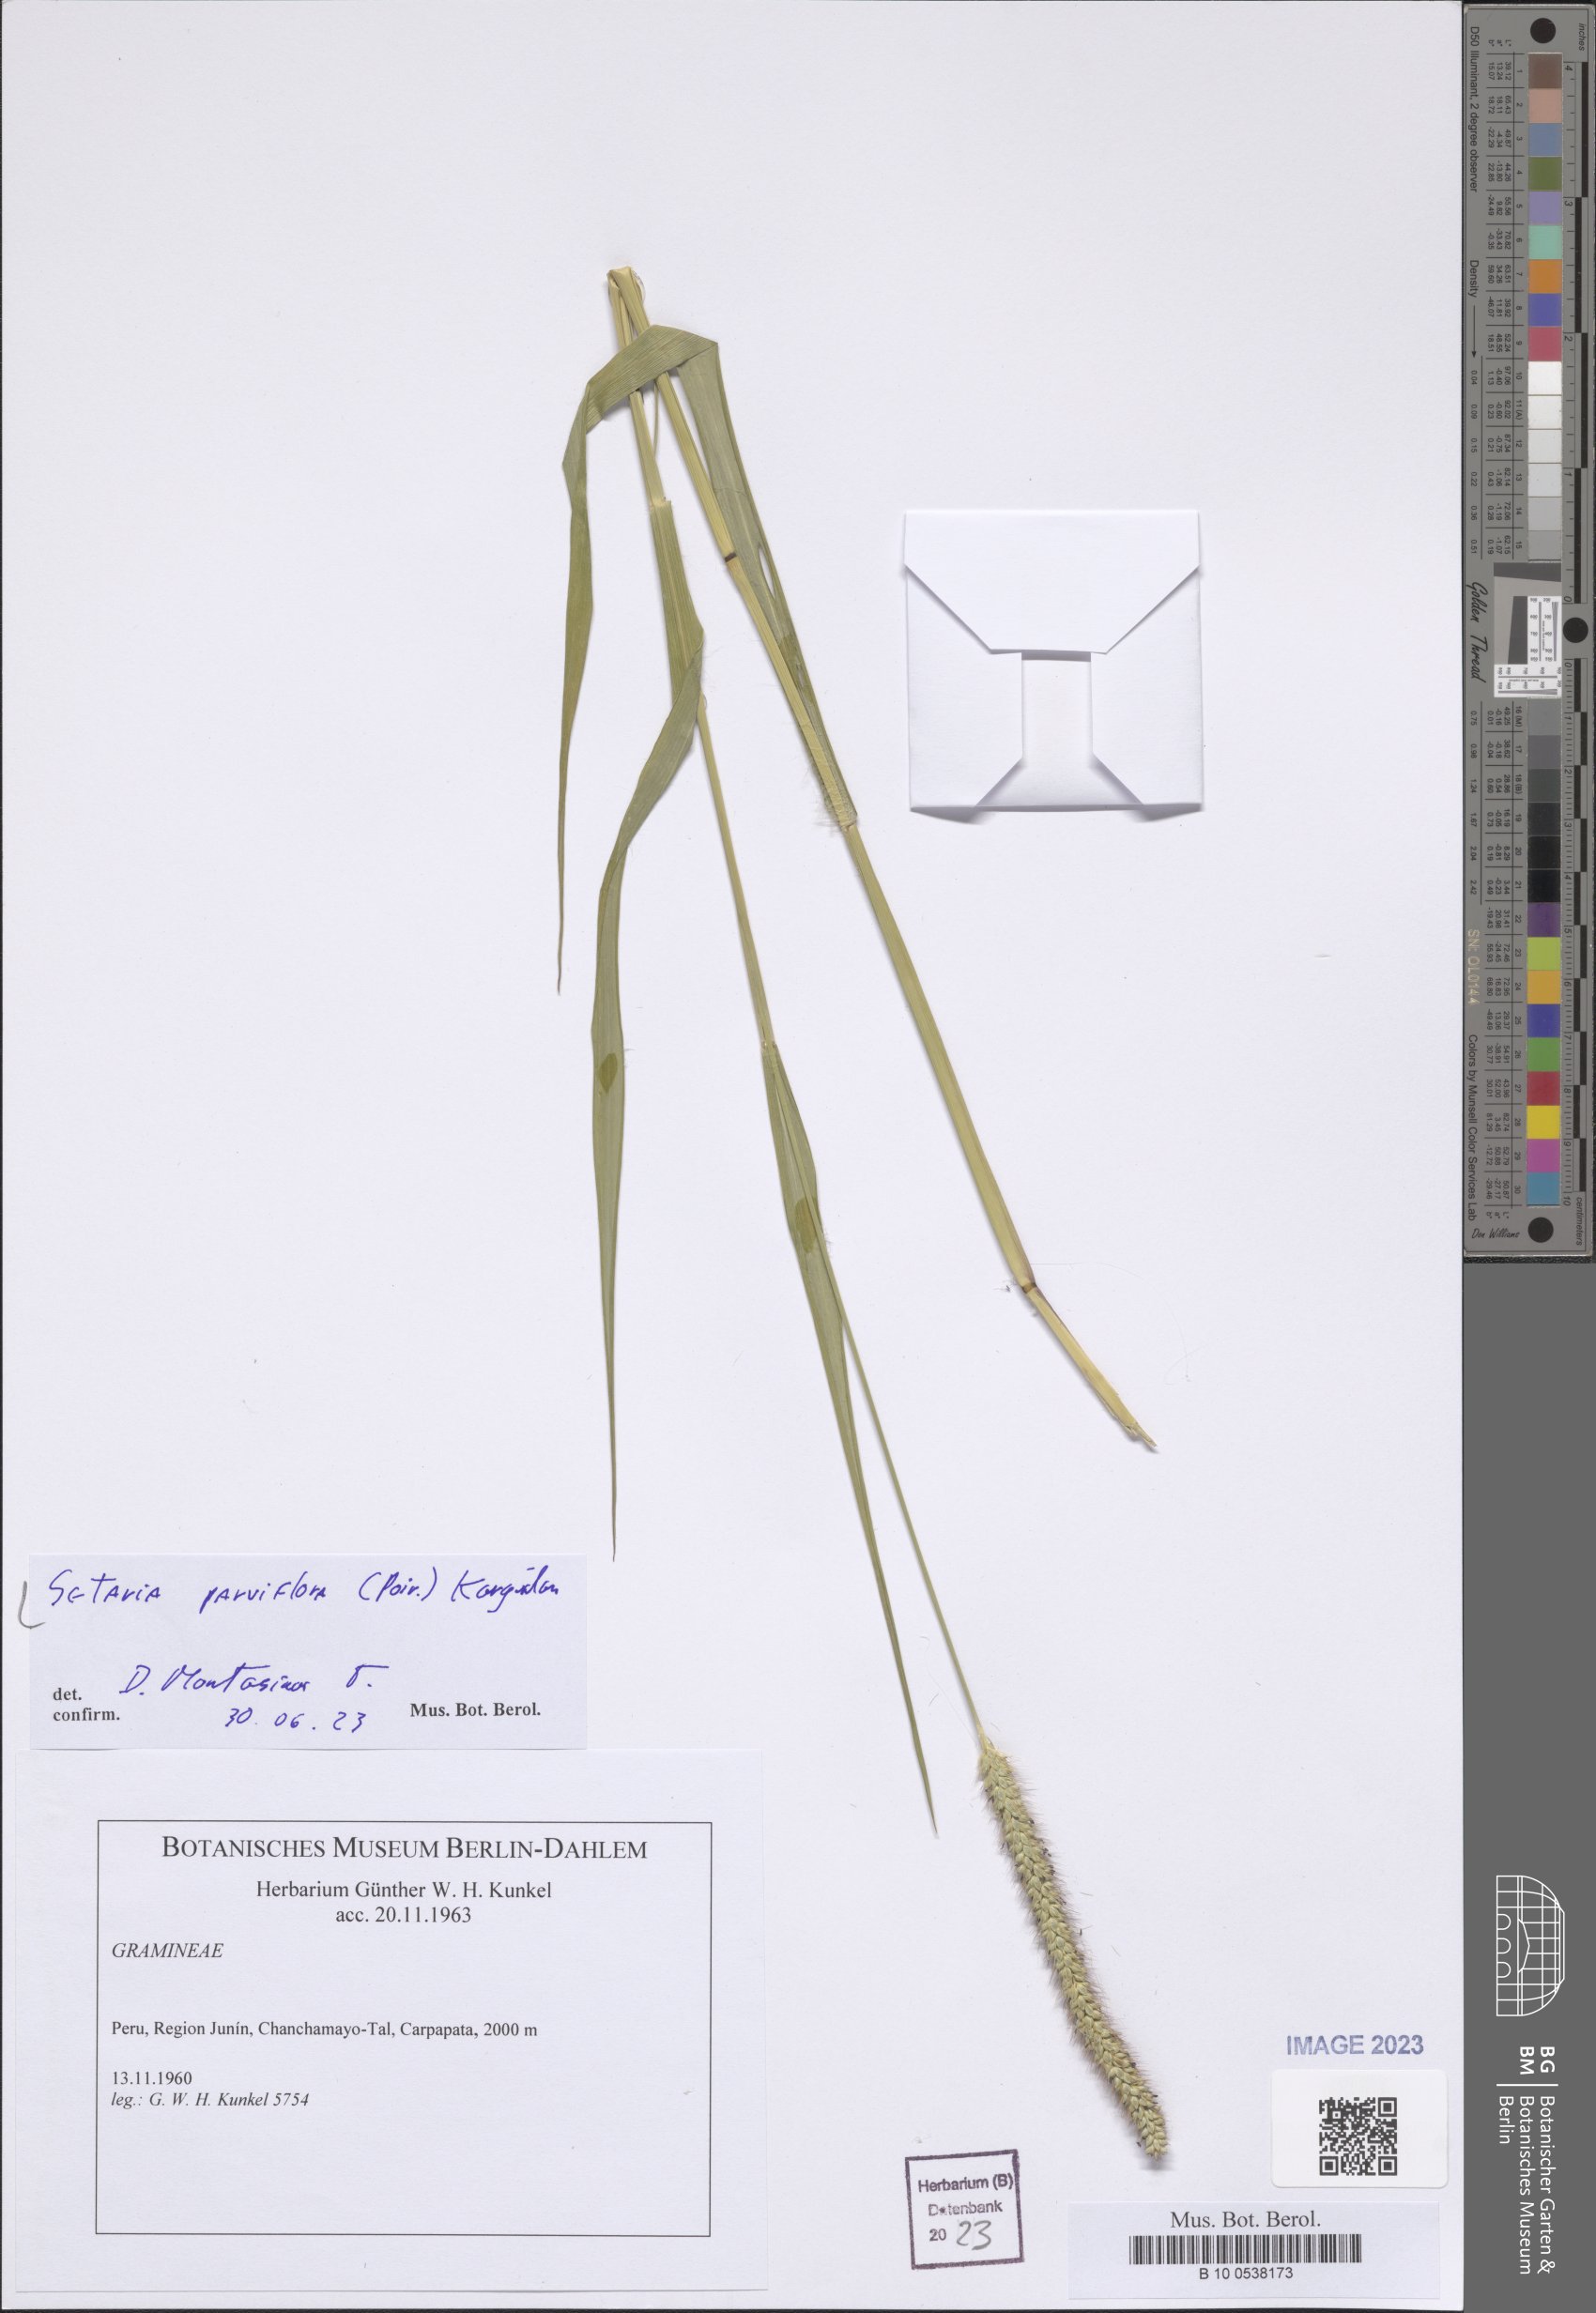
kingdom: Plantae
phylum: Tracheophyta
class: Liliopsida
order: Poales
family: Poaceae
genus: Setaria
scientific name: Setaria parviflora
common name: Knotroot bristle-grass
